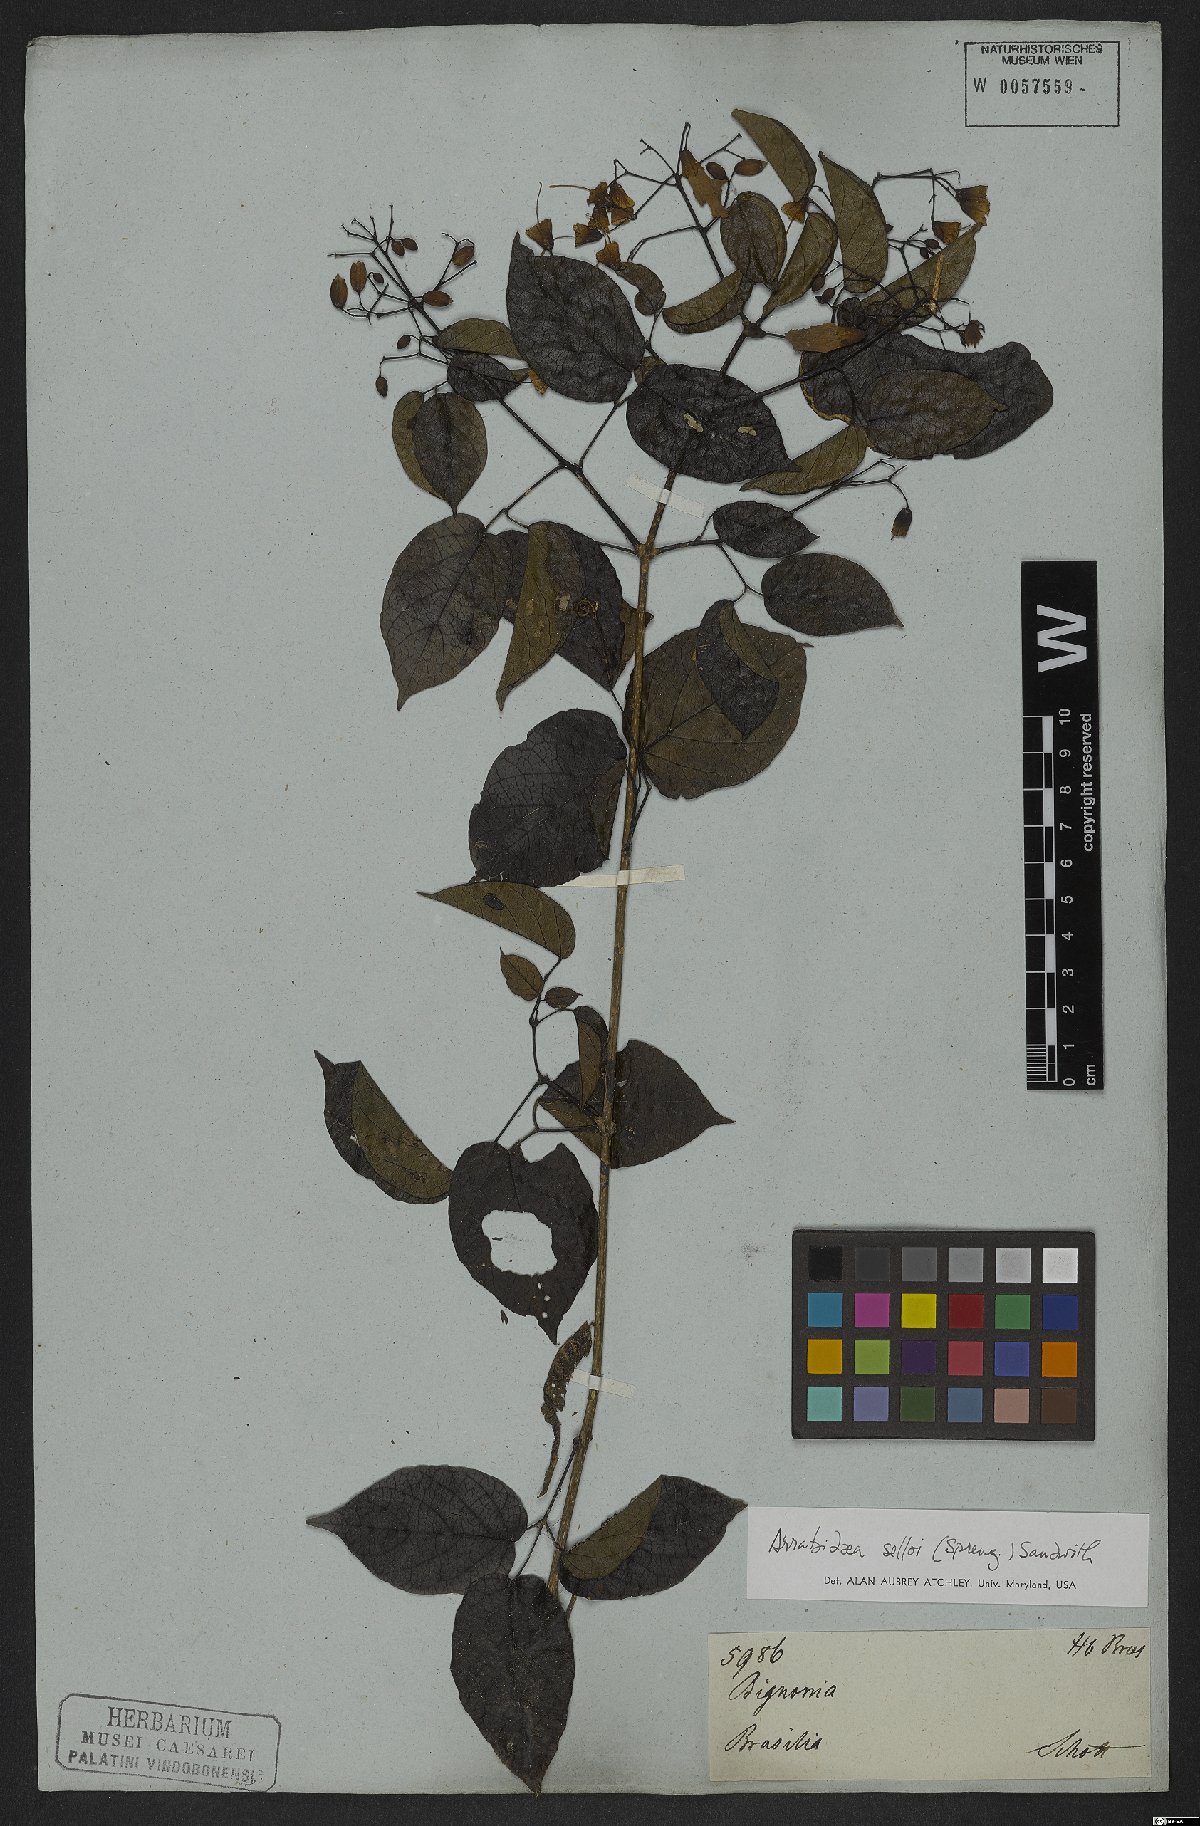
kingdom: Plantae
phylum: Tracheophyta
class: Magnoliopsida
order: Lamiales
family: Bignoniaceae
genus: Tanaecium
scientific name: Tanaecium selloi
